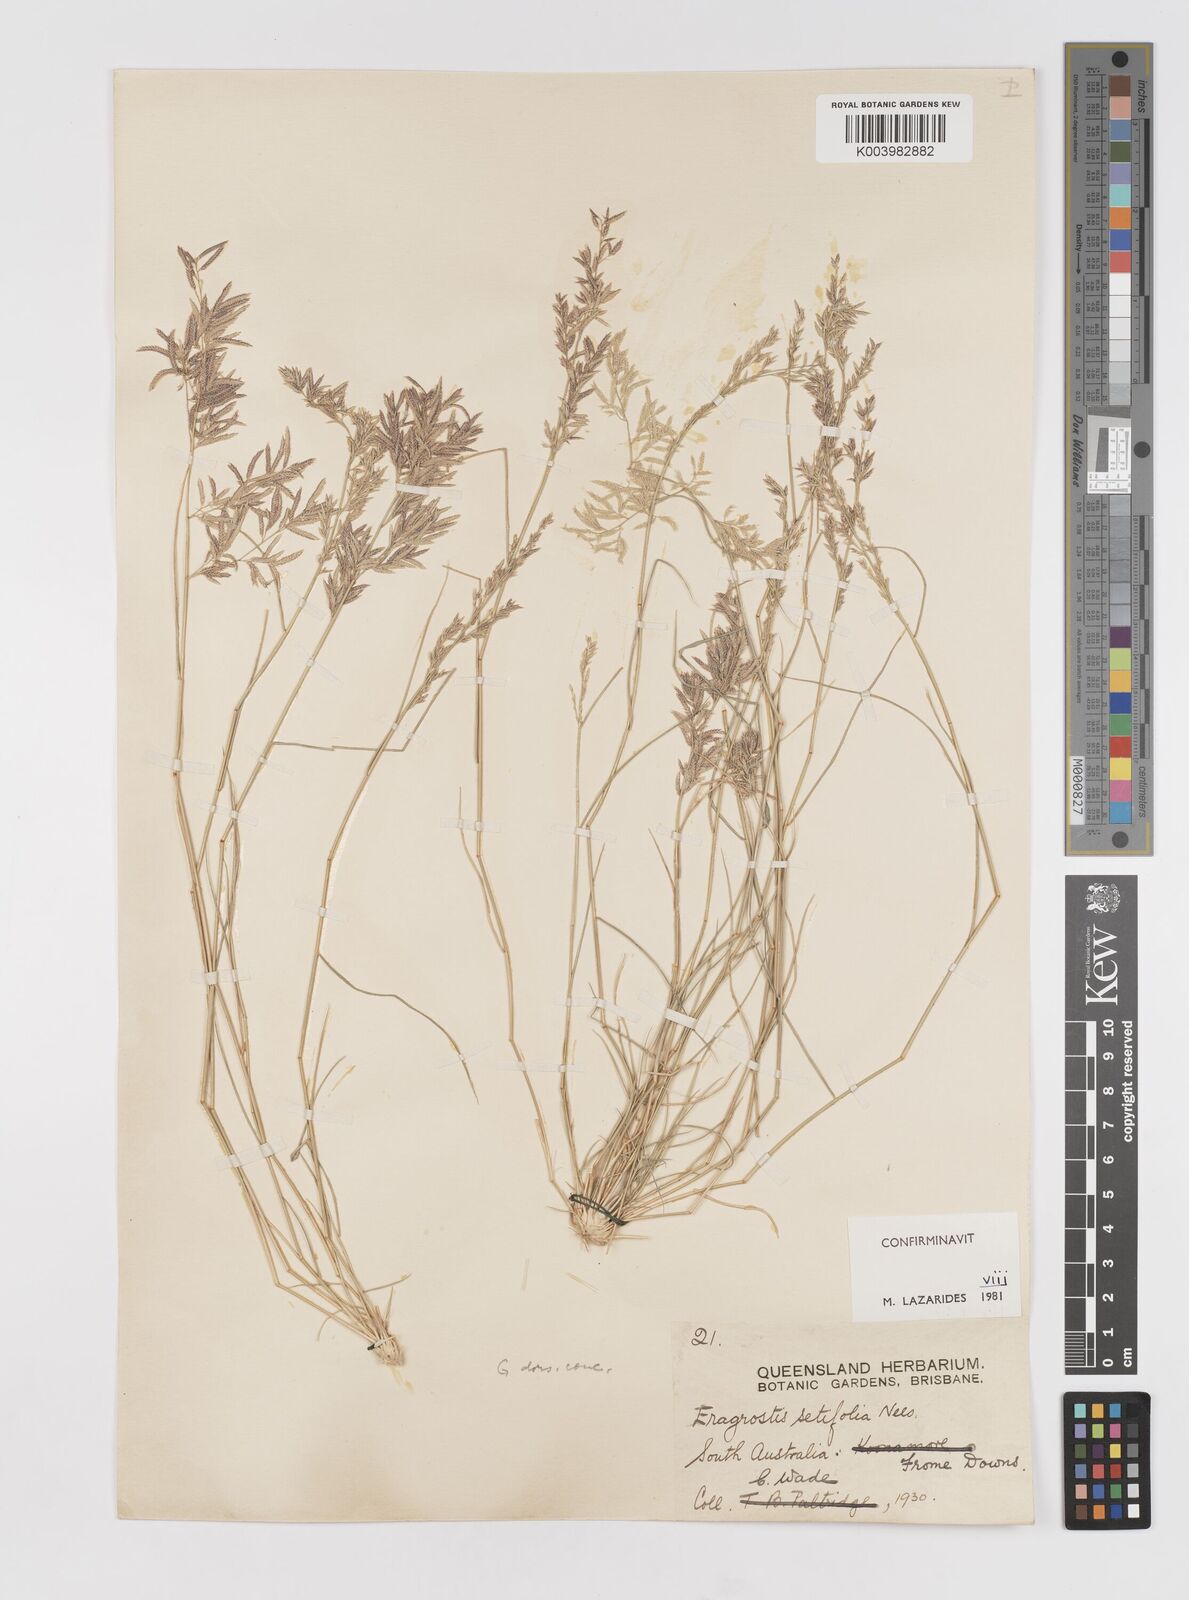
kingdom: Plantae
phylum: Tracheophyta
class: Liliopsida
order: Poales
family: Poaceae
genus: Eragrostis
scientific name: Eragrostis setifolia
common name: Bristleleaf lovegrass
